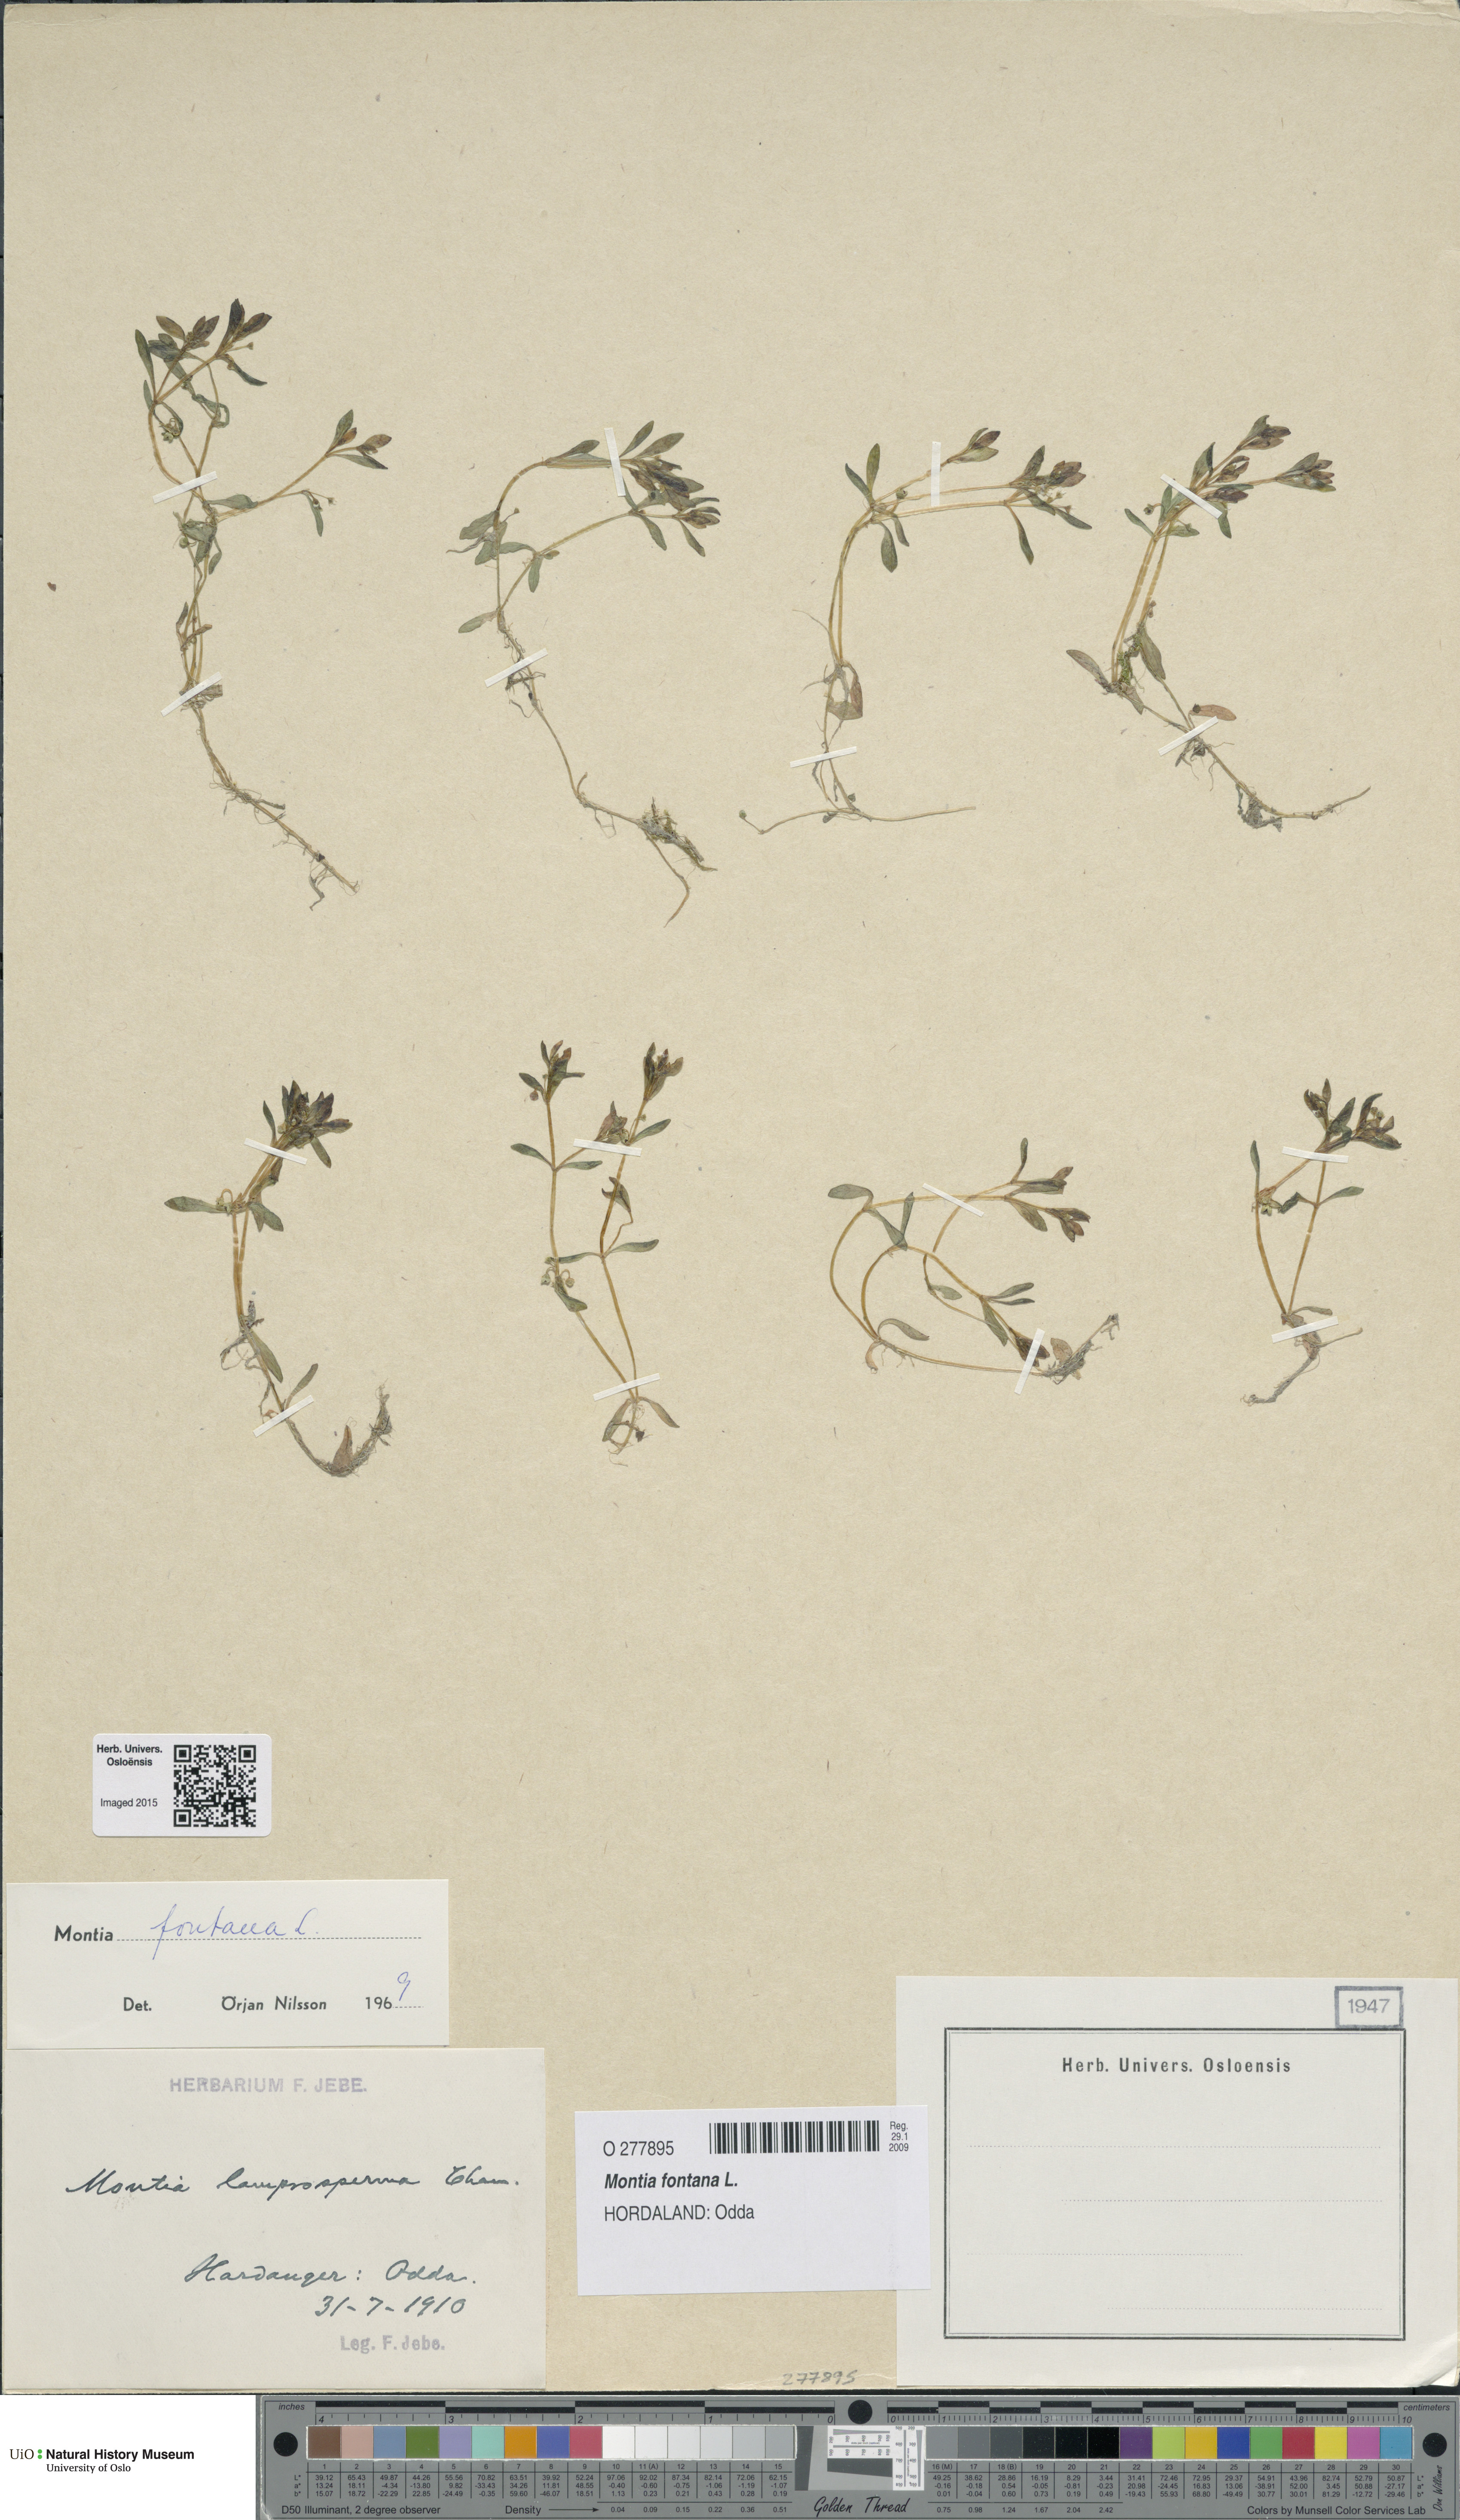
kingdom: Plantae
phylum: Tracheophyta
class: Magnoliopsida
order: Caryophyllales
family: Montiaceae
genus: Montia
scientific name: Montia fontana
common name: Blinks
